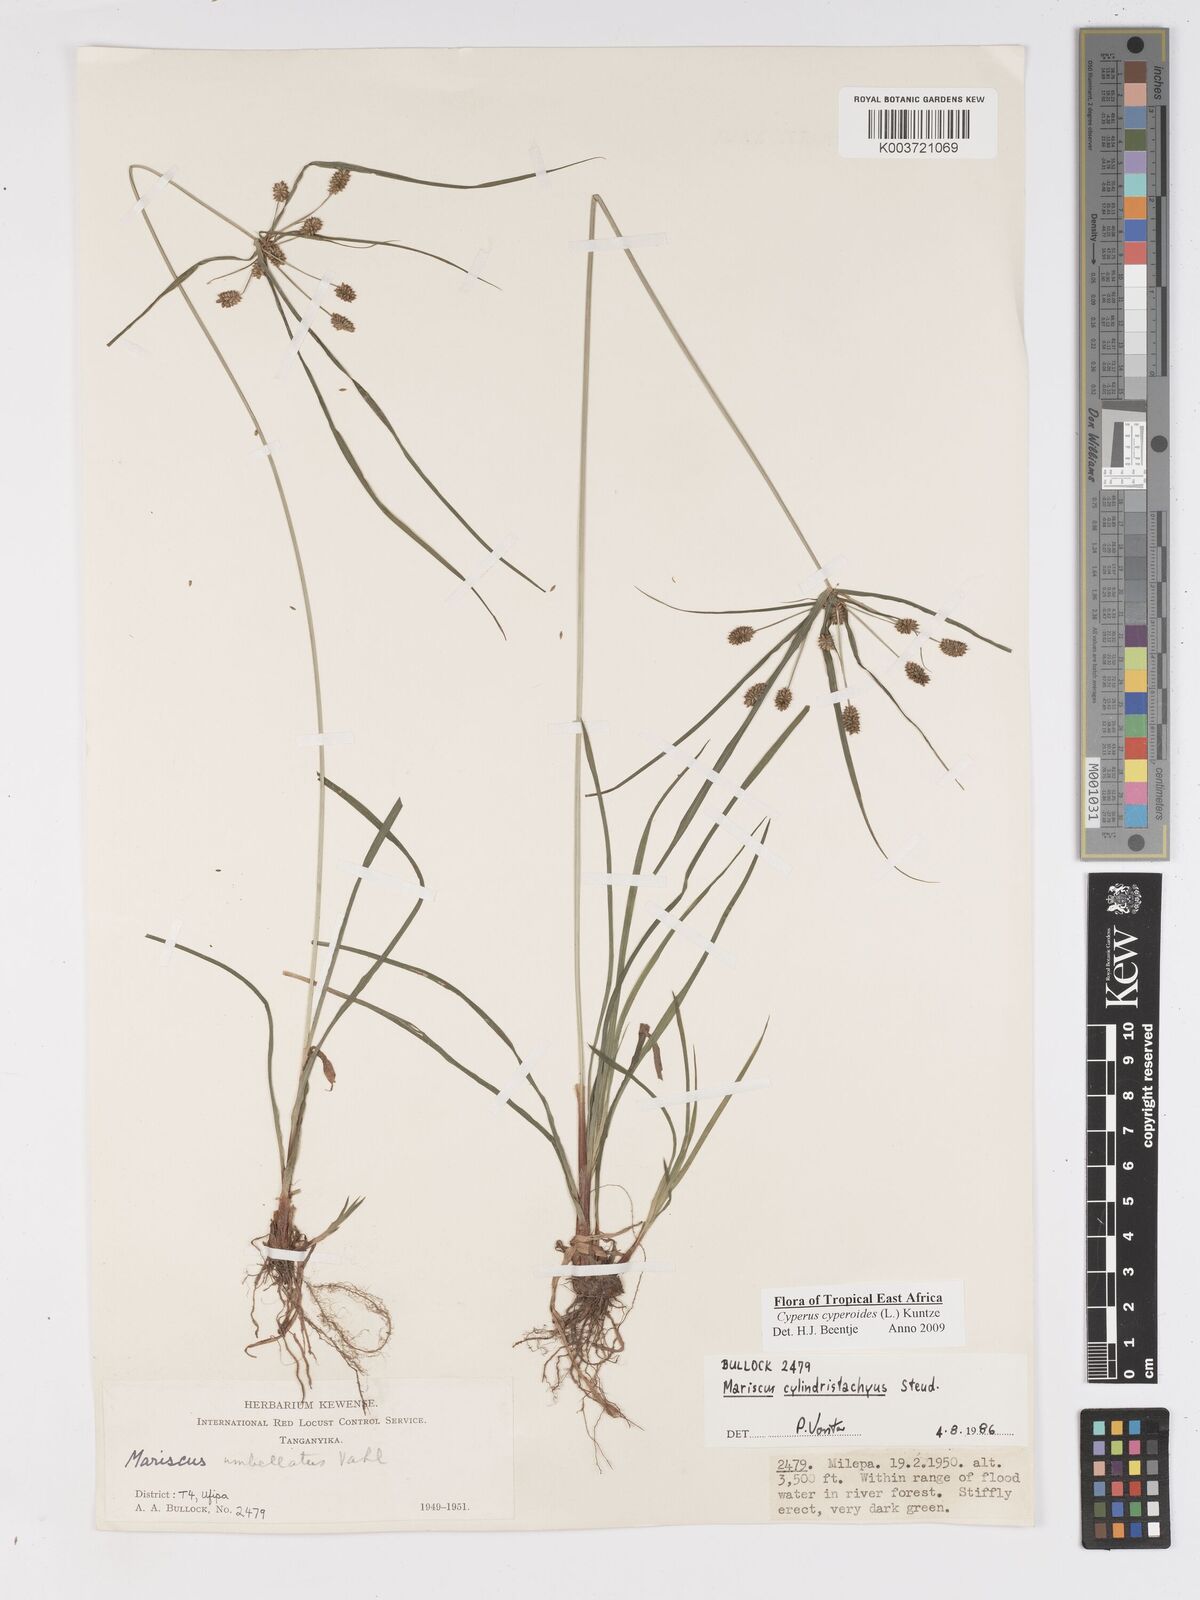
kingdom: Plantae
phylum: Tracheophyta
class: Liliopsida
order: Poales
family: Cyperaceae
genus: Cyperus
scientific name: Cyperus cyperoides
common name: Pacific island flat sedge
